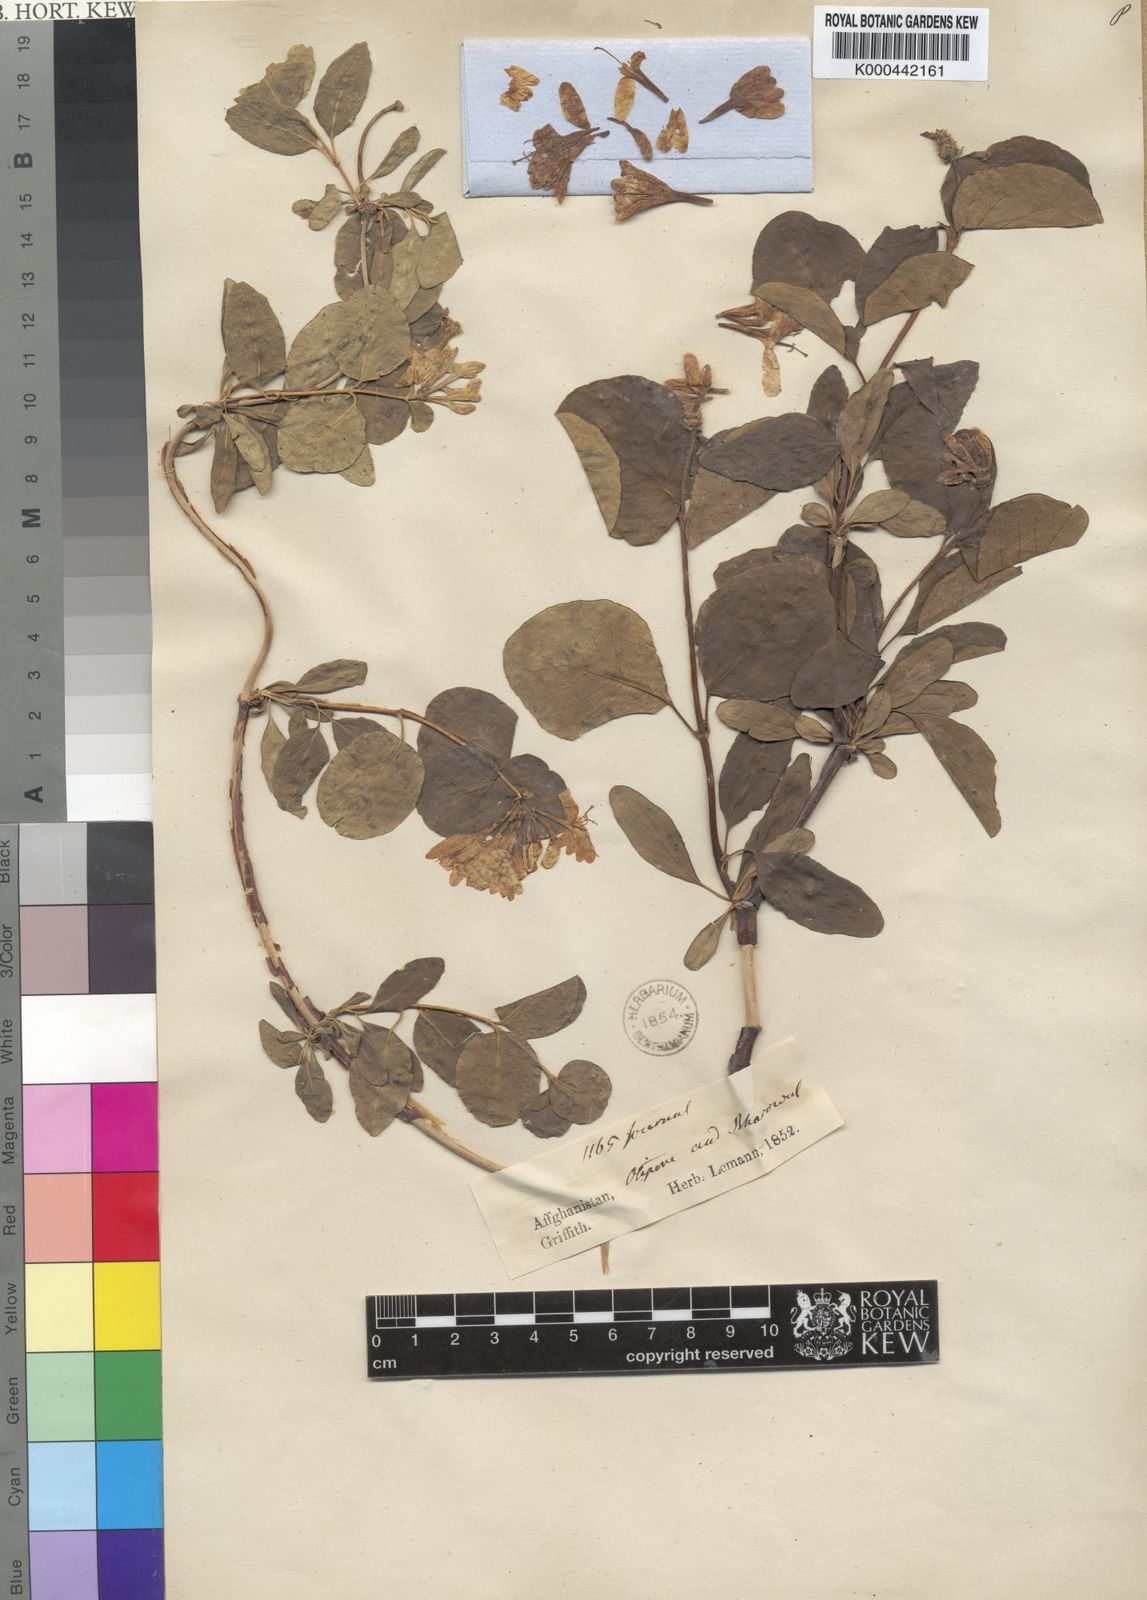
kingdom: Plantae
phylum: Tracheophyta
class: Magnoliopsida
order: Dipsacales
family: Caprifoliaceae
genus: Lonicera
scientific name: Lonicera griffithii
